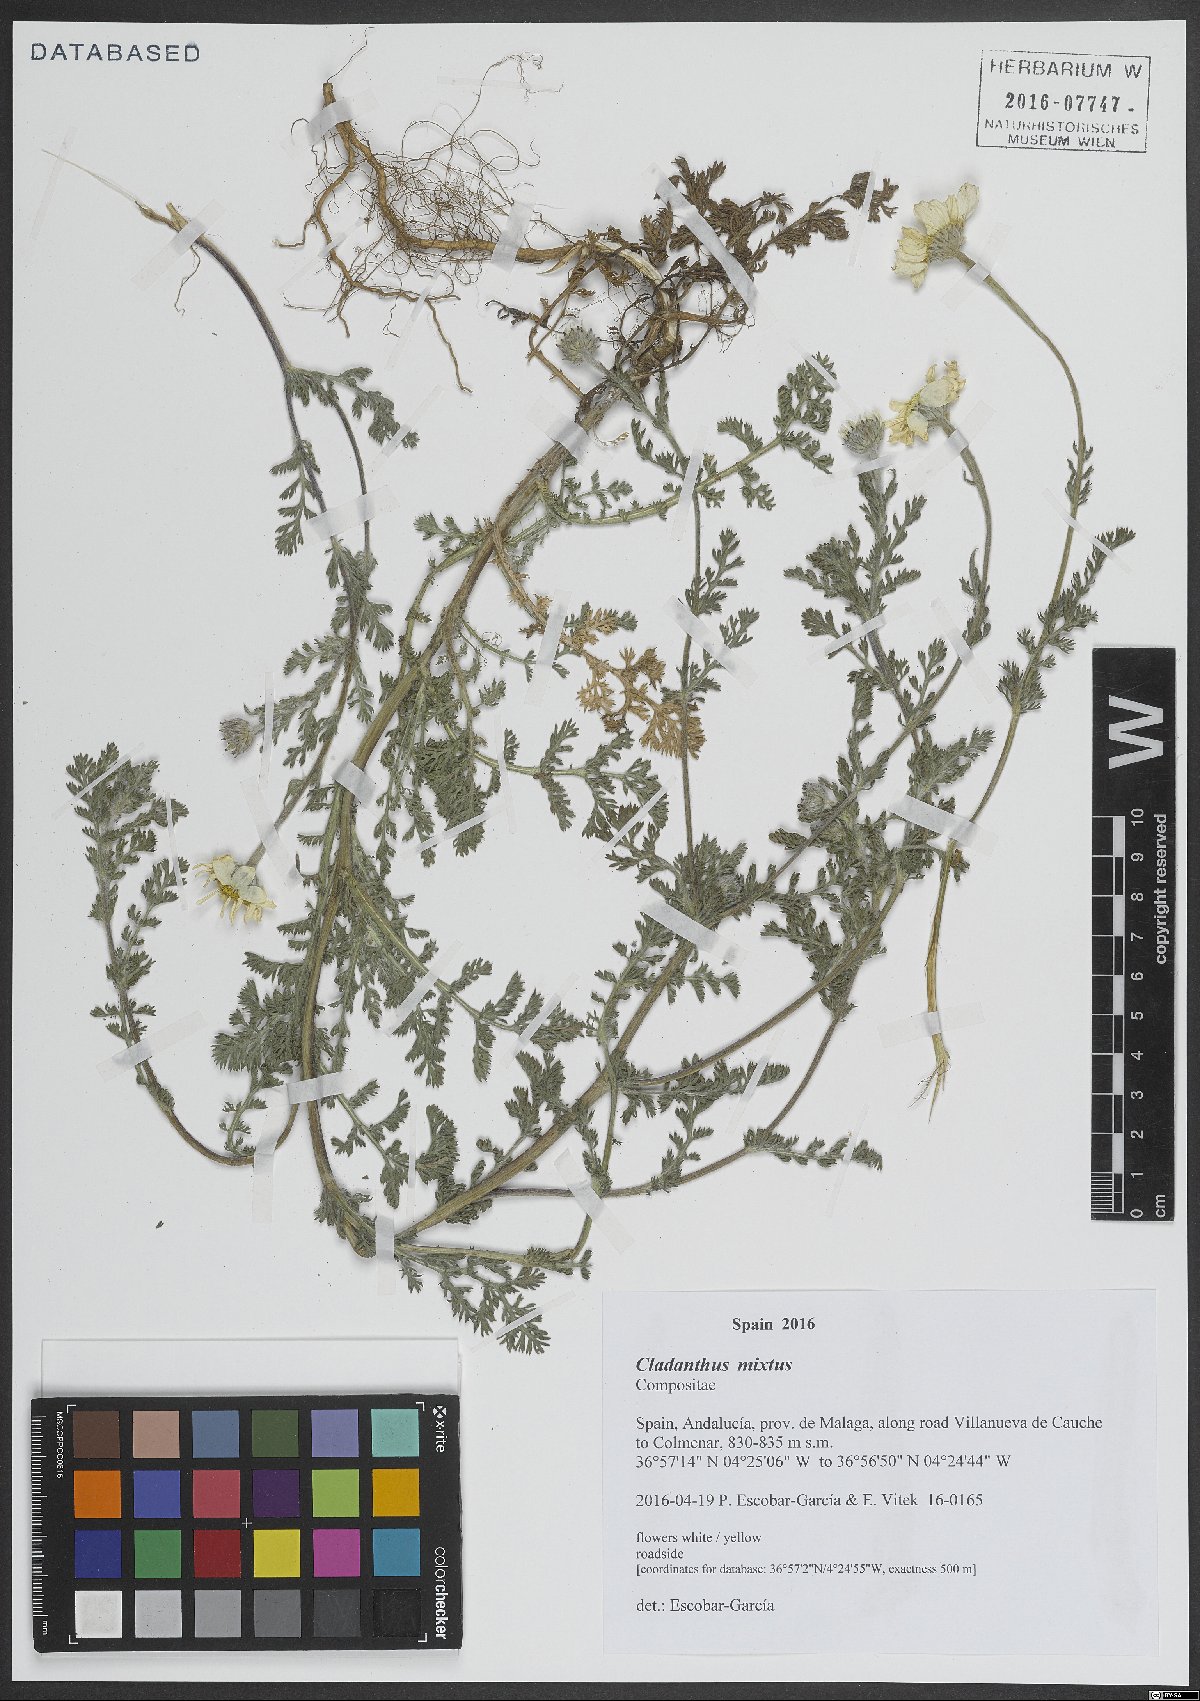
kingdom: Plantae
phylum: Tracheophyta
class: Magnoliopsida
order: Asterales
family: Asteraceae
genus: Cladanthus
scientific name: Cladanthus mixtus
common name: Weedy dogfennel
